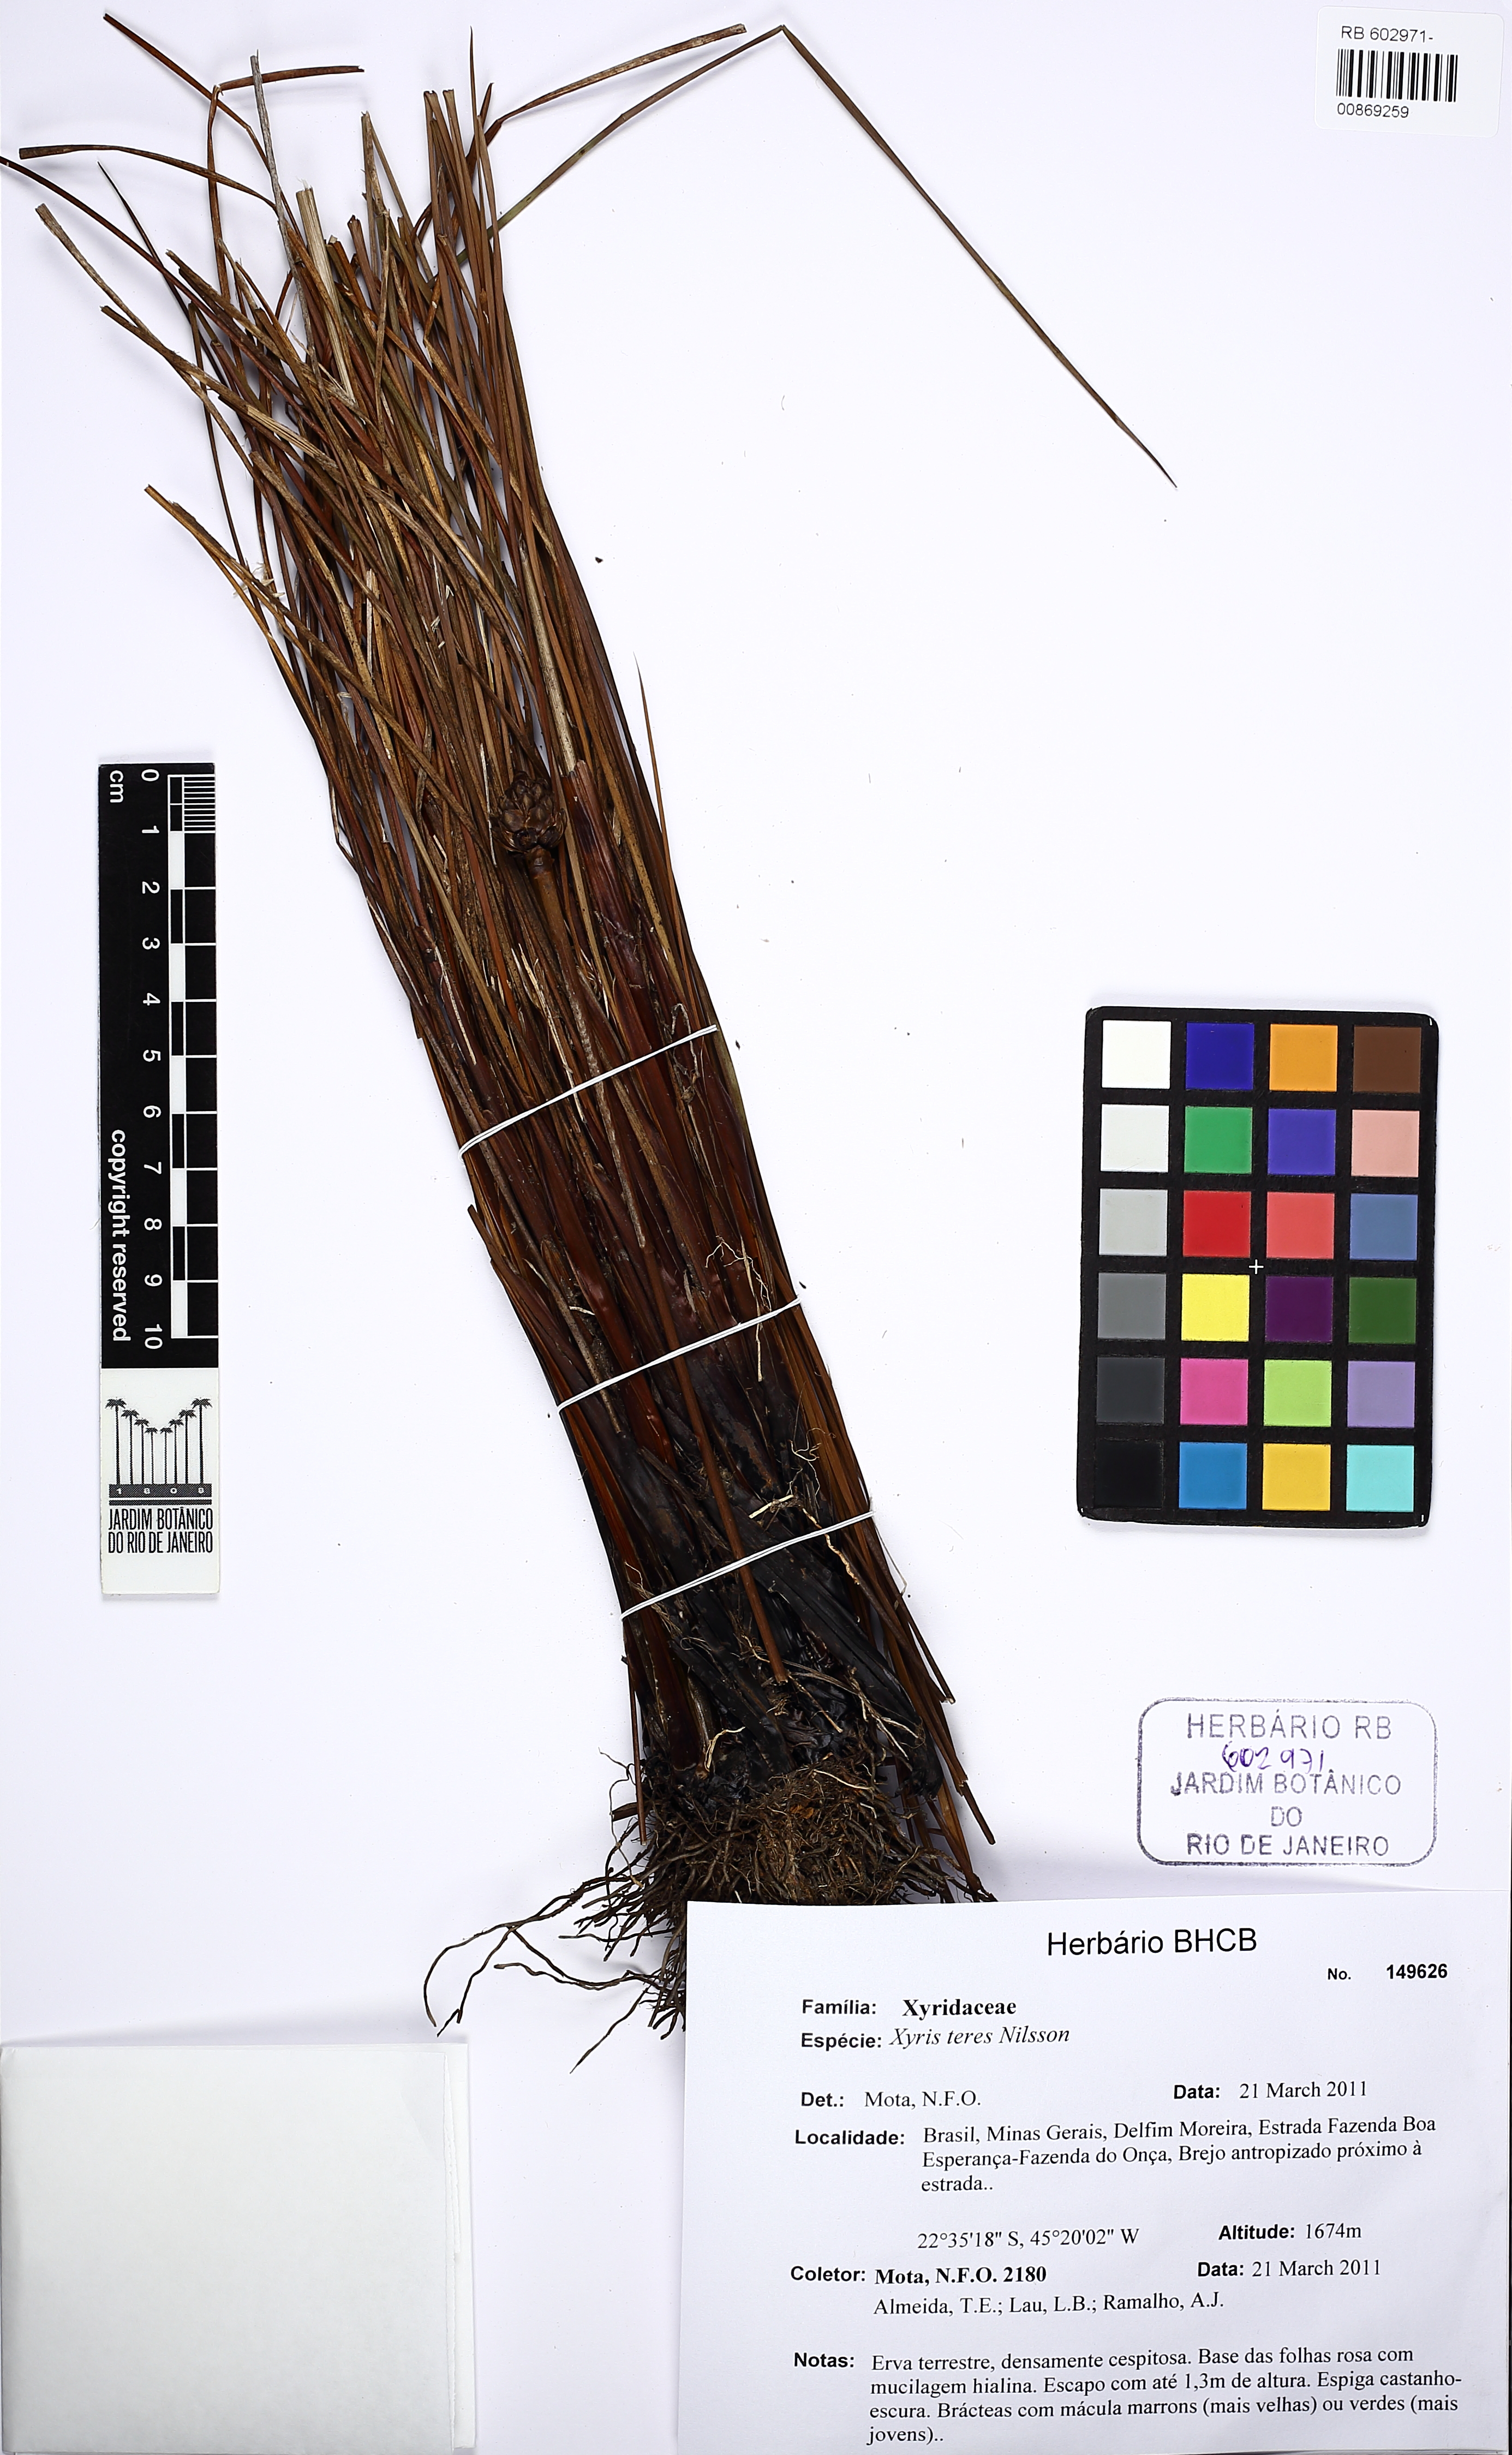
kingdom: Plantae
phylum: Tracheophyta
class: Liliopsida
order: Poales
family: Xyridaceae
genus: Xyris
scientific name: Xyris teres
